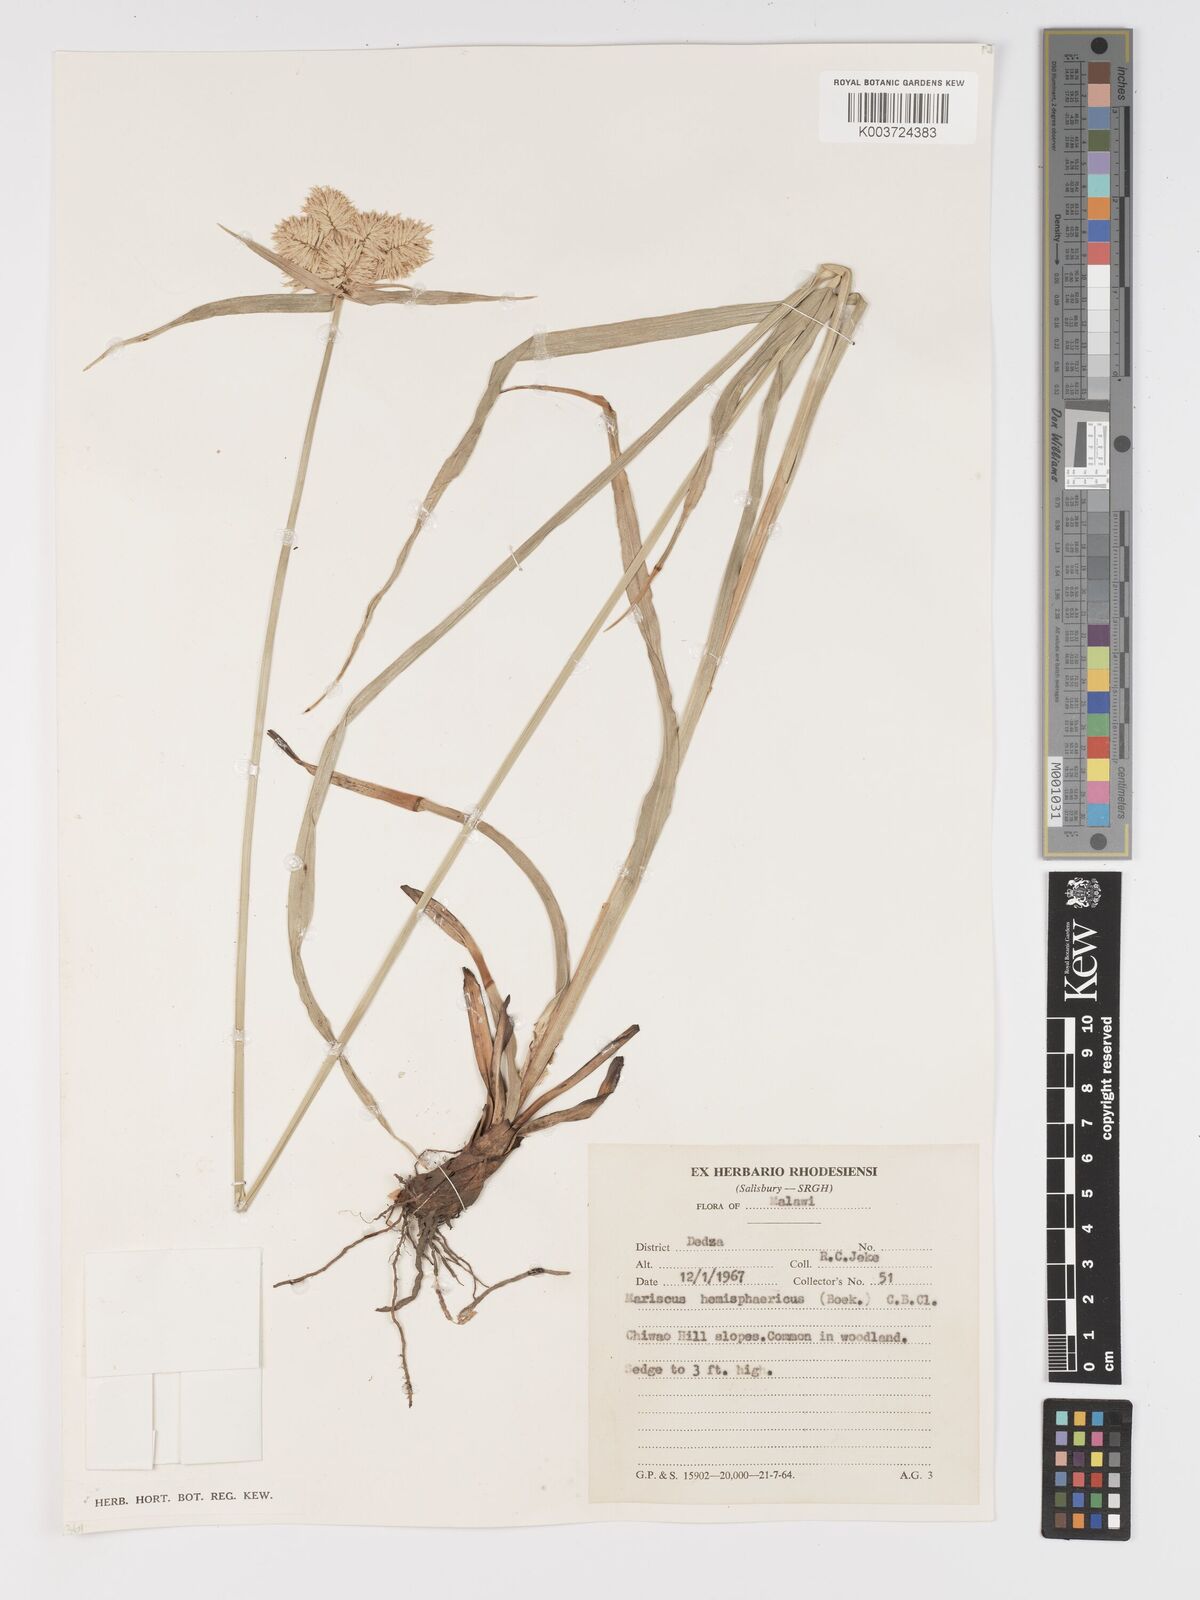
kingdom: Plantae
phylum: Tracheophyta
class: Liliopsida
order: Poales
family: Cyperaceae
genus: Cyperus
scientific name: Cyperus hemisphaericus
